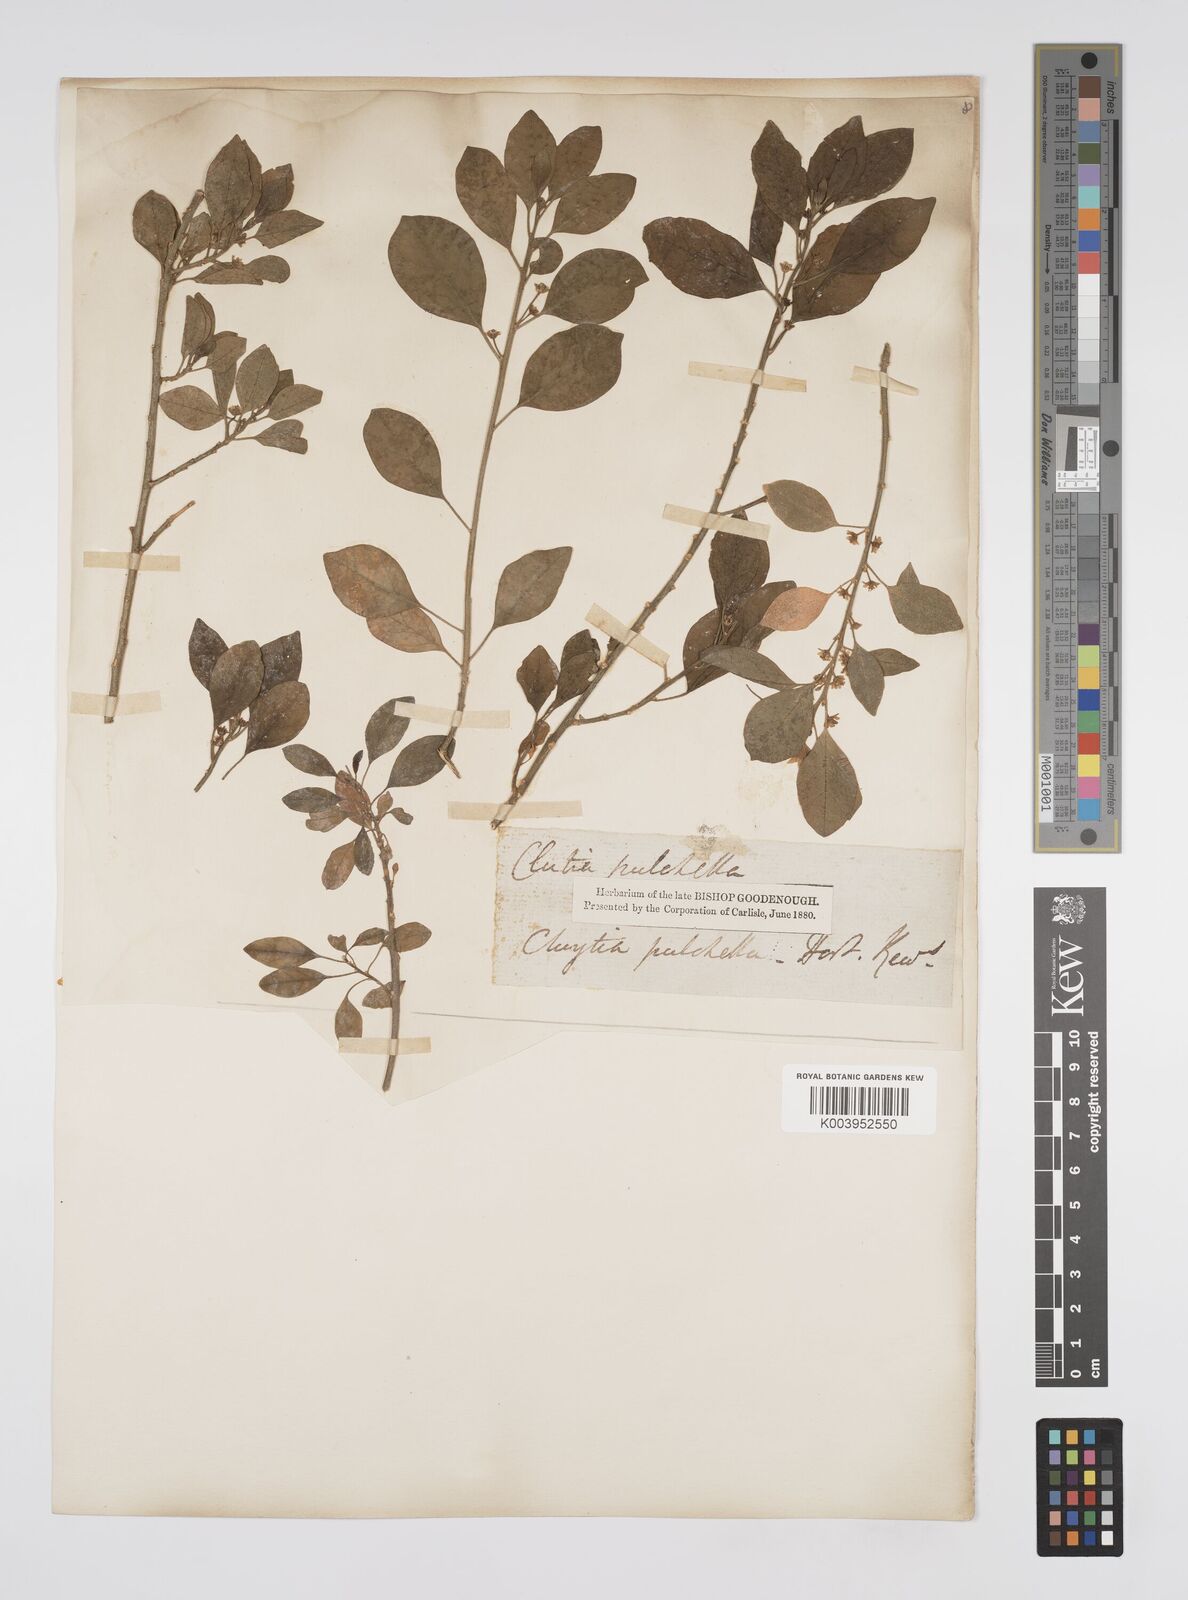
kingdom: Plantae
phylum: Tracheophyta
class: Magnoliopsida
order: Malpighiales
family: Peraceae
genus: Clutia
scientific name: Clutia pulchella
